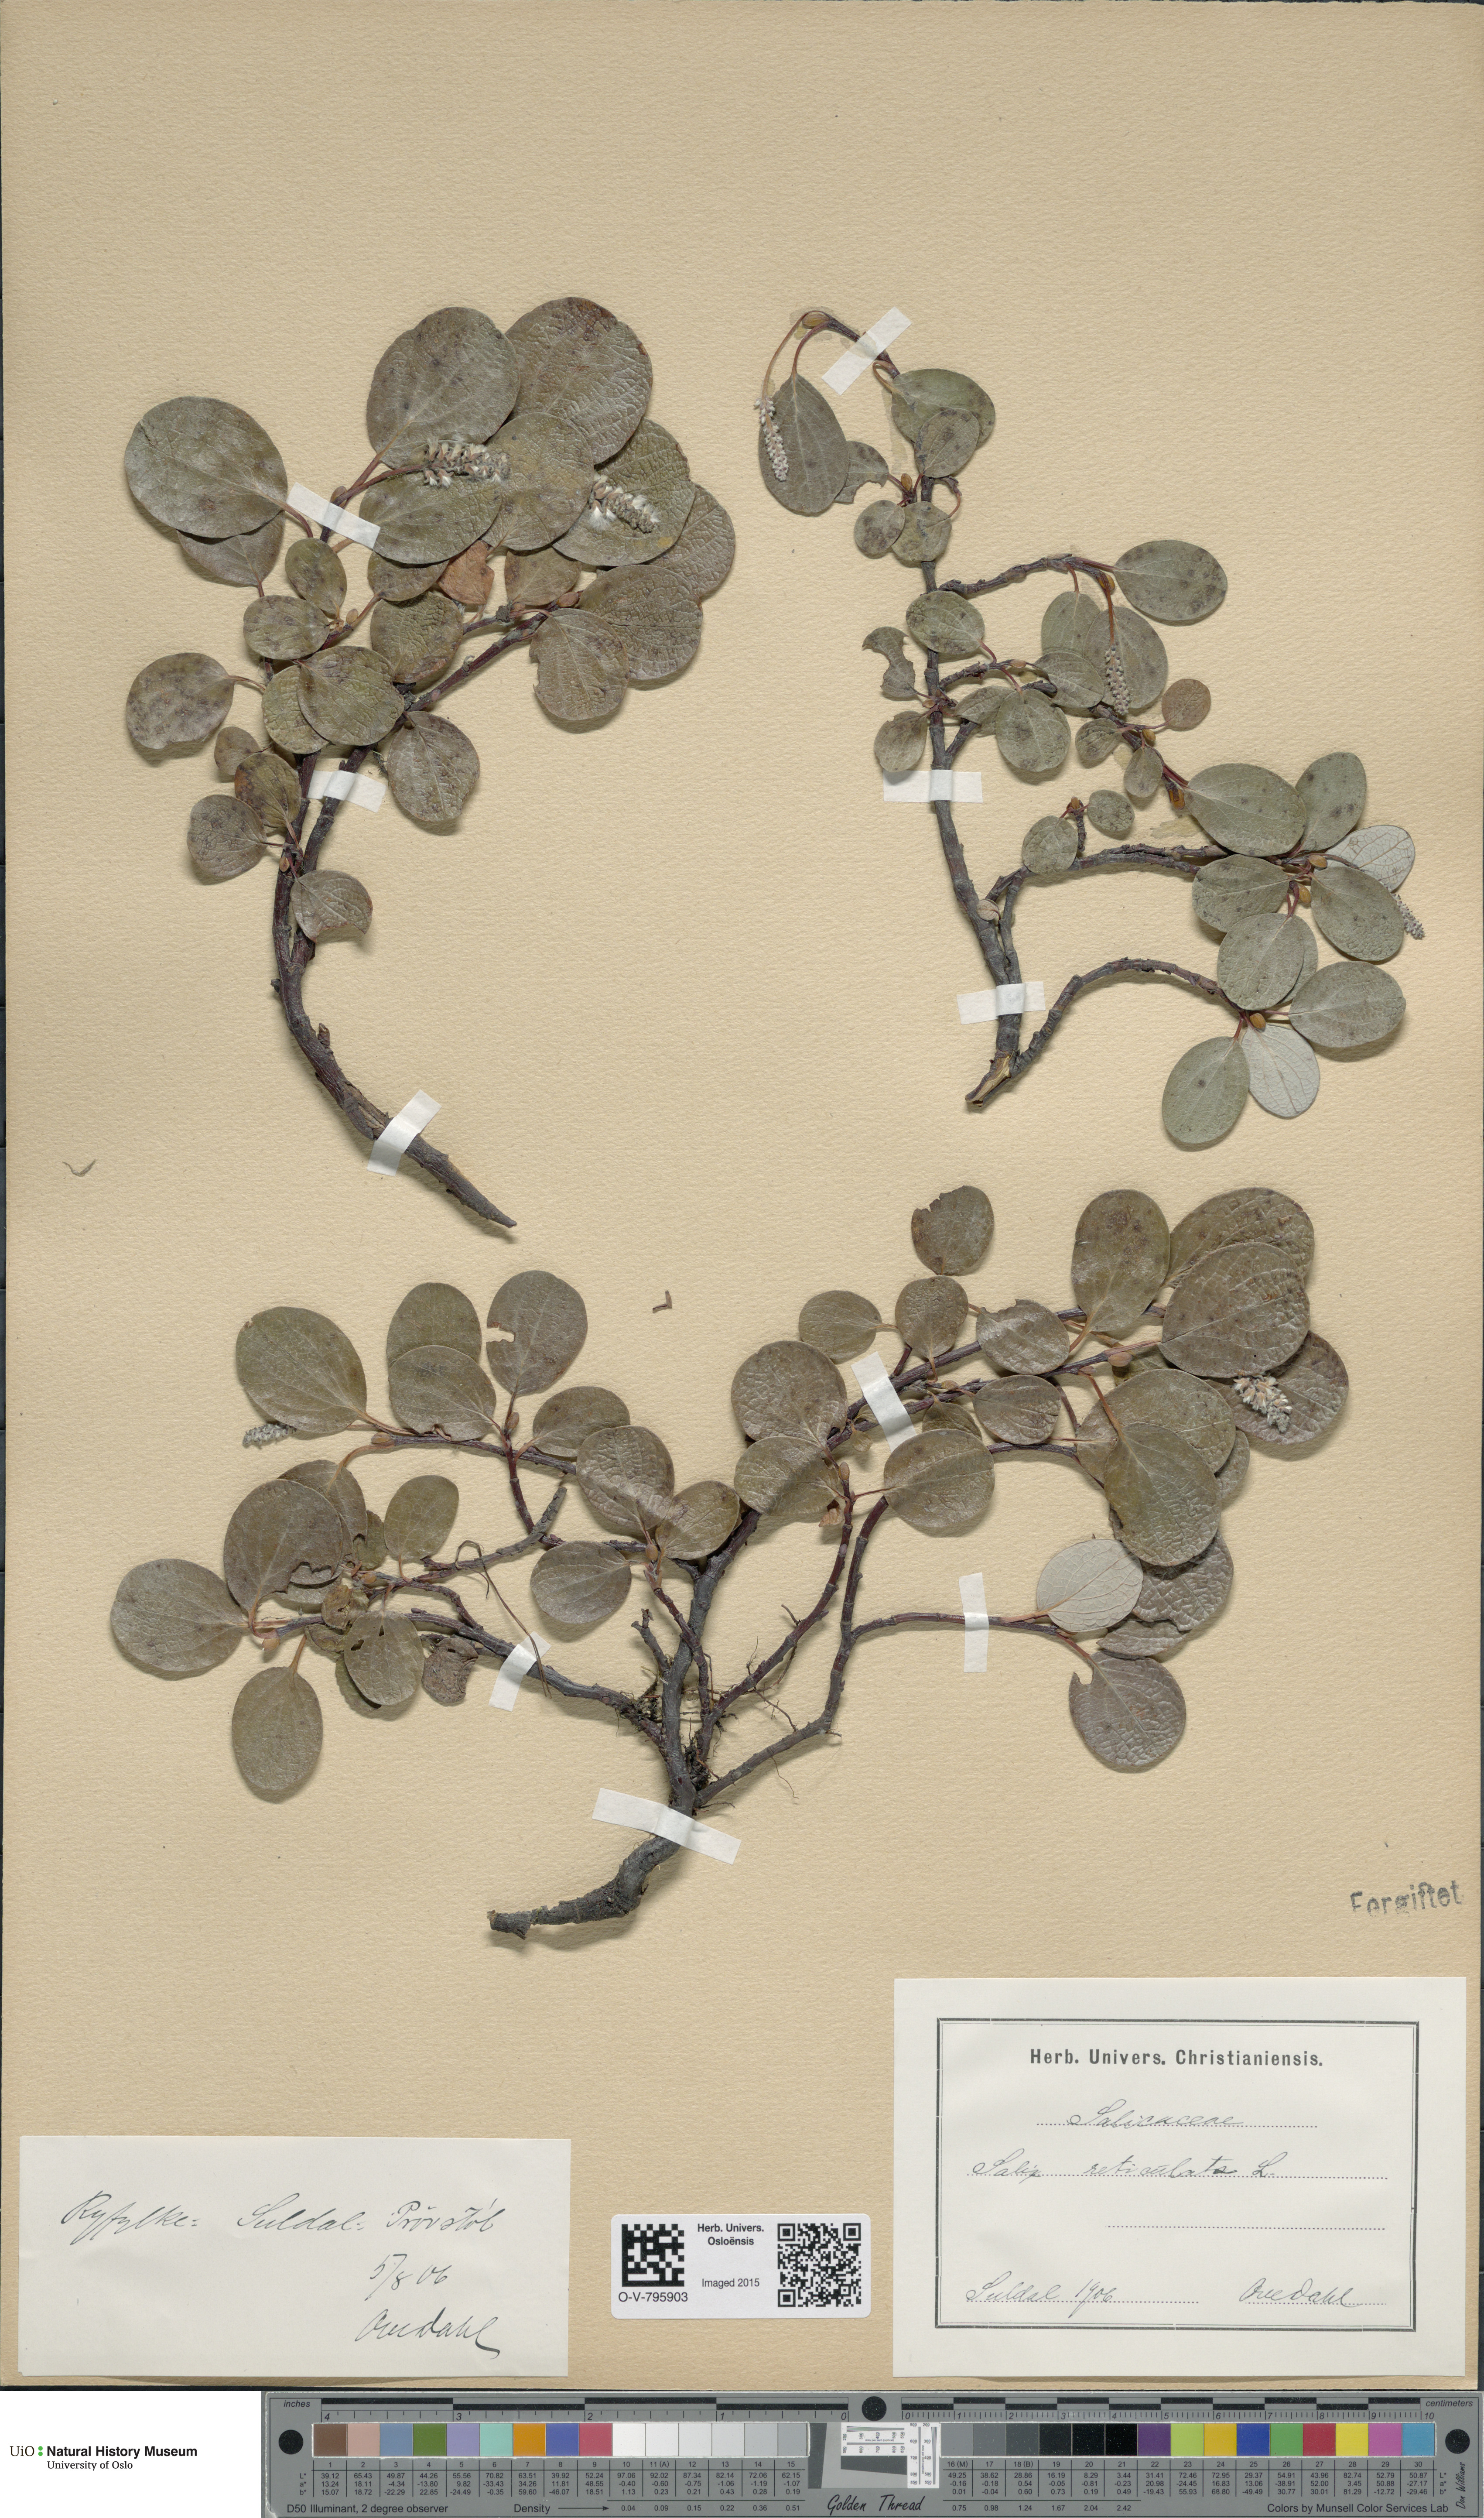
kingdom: Plantae
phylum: Tracheophyta
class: Magnoliopsida
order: Malpighiales
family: Salicaceae
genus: Salix
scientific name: Salix reticulata
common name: Net-leaved willow
